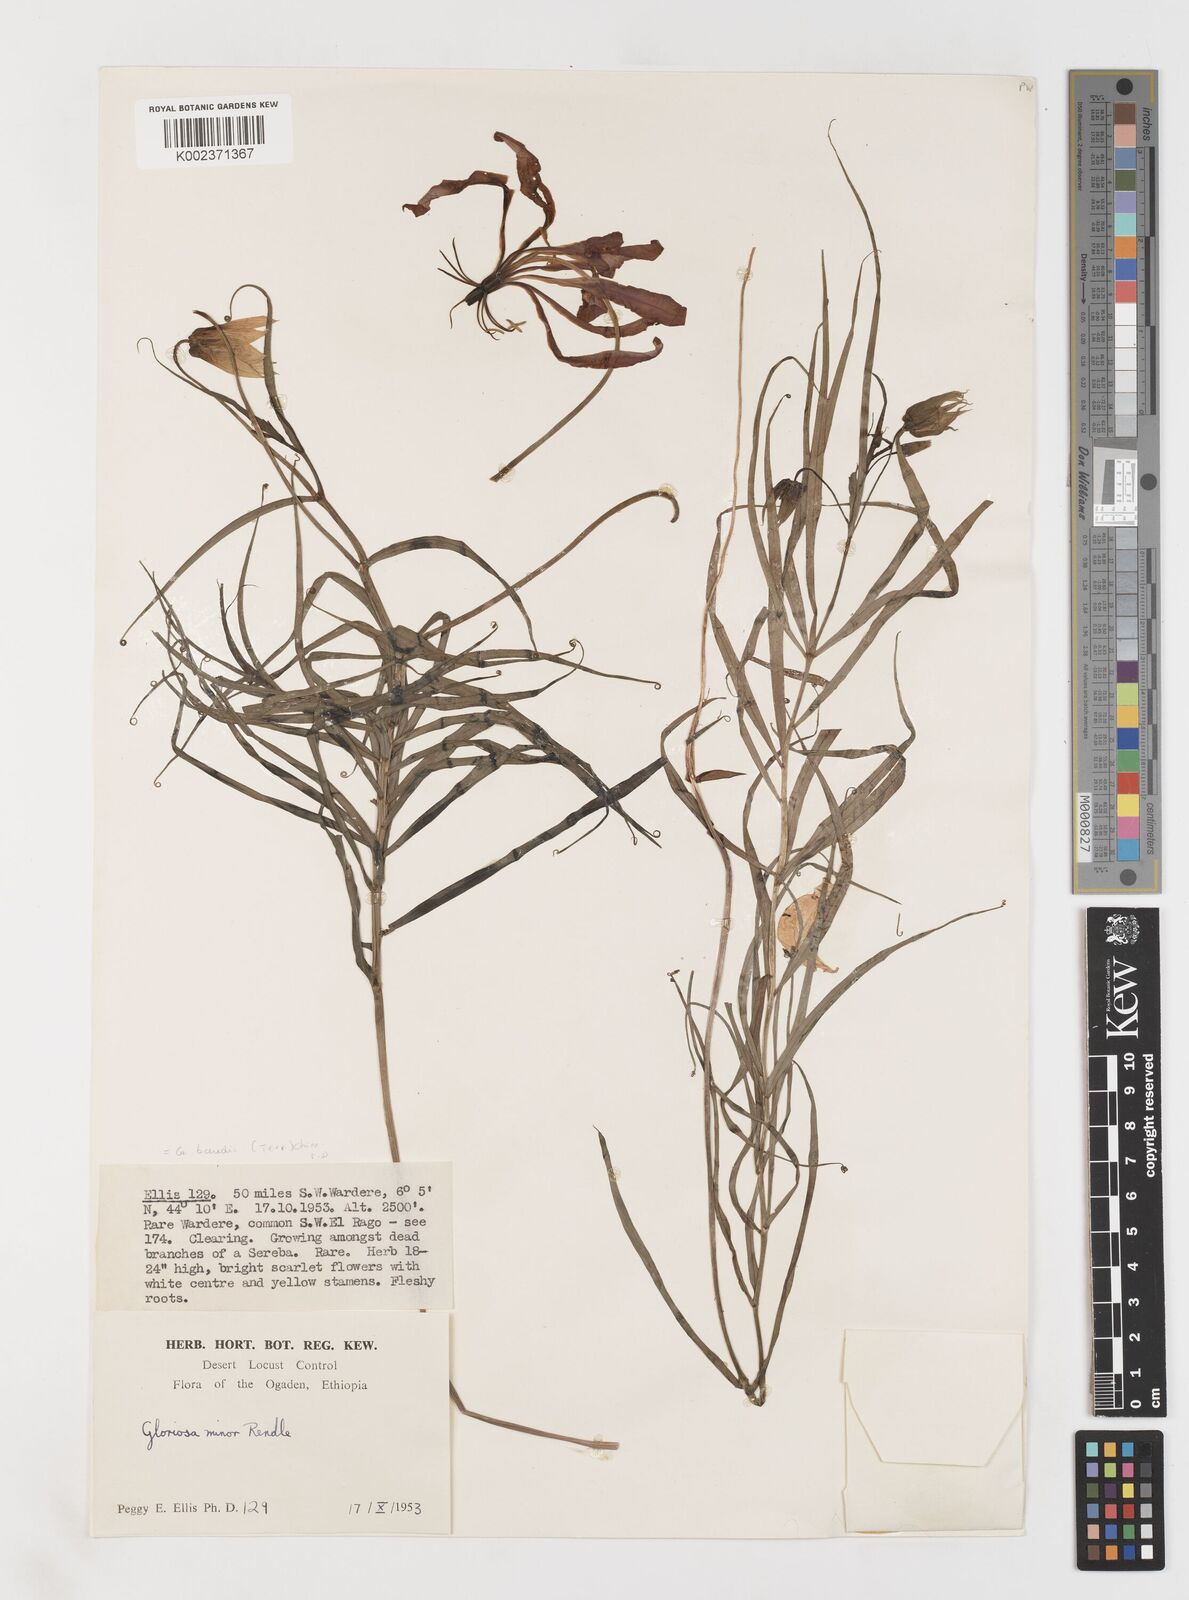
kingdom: Plantae
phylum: Tracheophyta
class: Liliopsida
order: Liliales
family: Colchicaceae
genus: Gloriosa
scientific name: Gloriosa baudii
